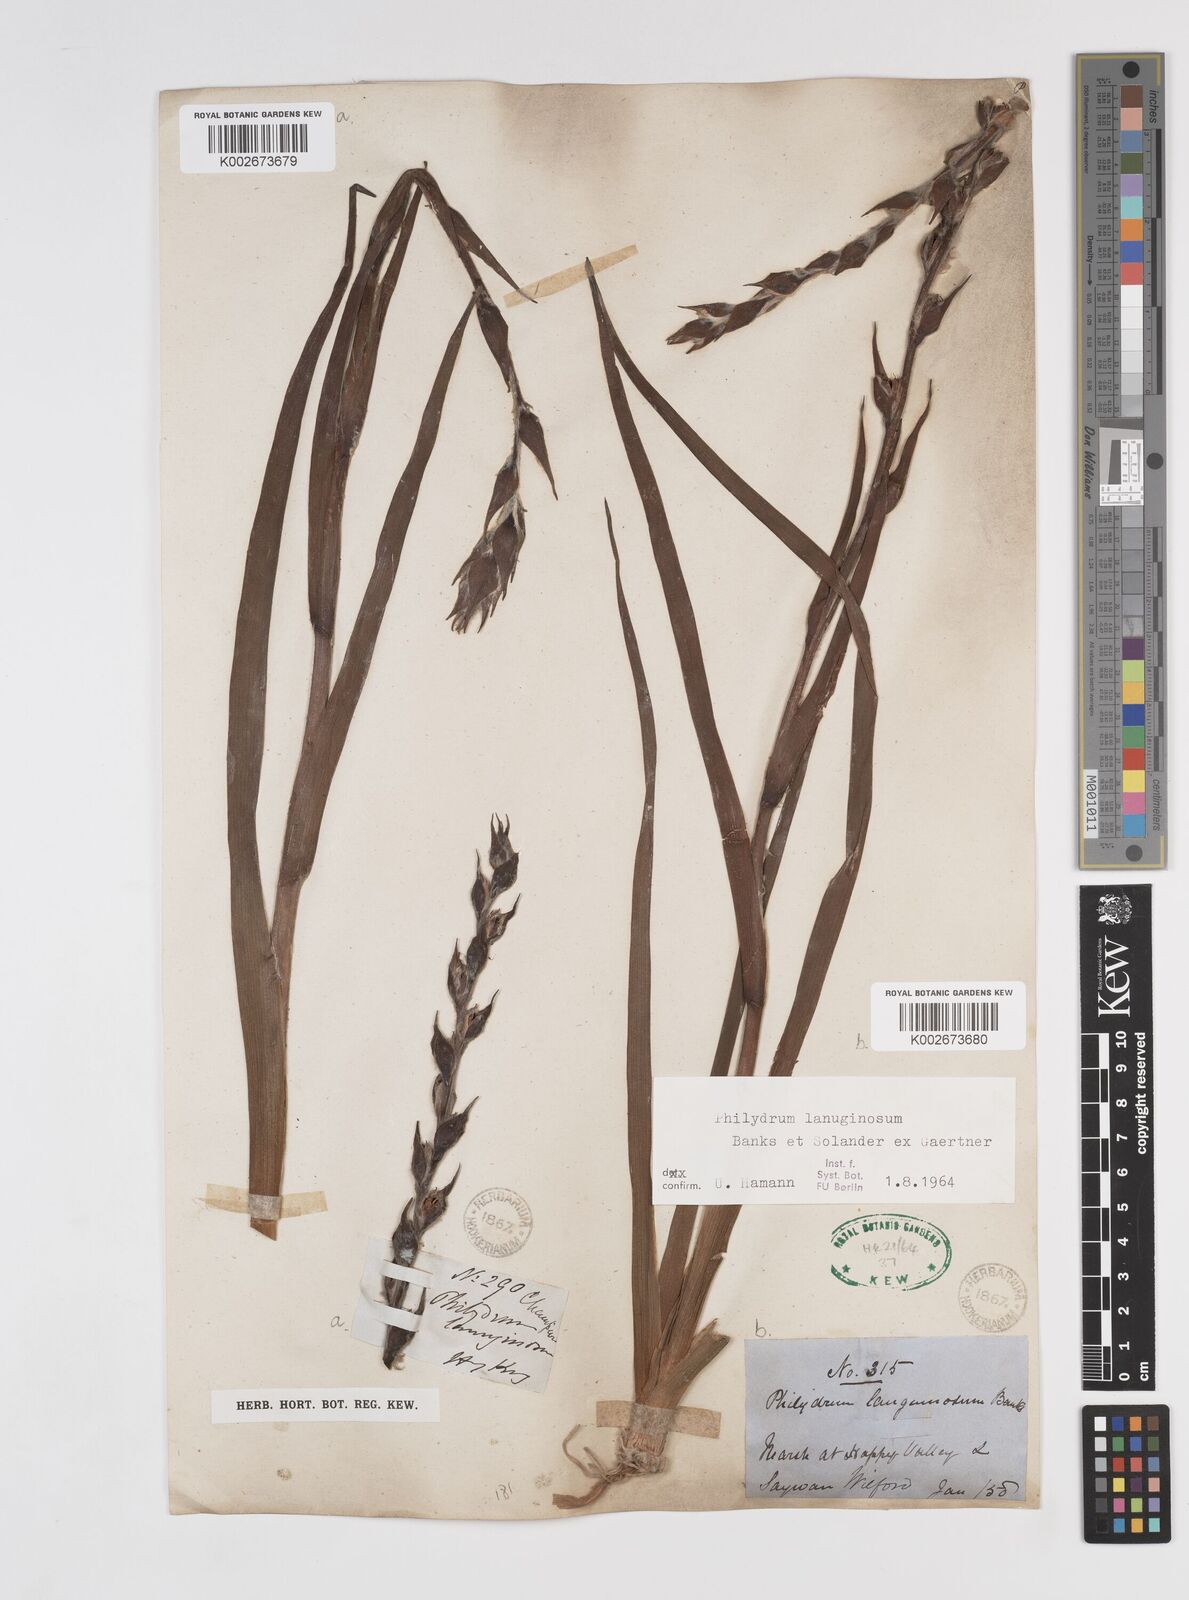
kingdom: Plantae
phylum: Tracheophyta
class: Liliopsida
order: Commelinales
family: Philydraceae
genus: Philydrum
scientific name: Philydrum lanuginosum
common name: Woolly frog's mouth
